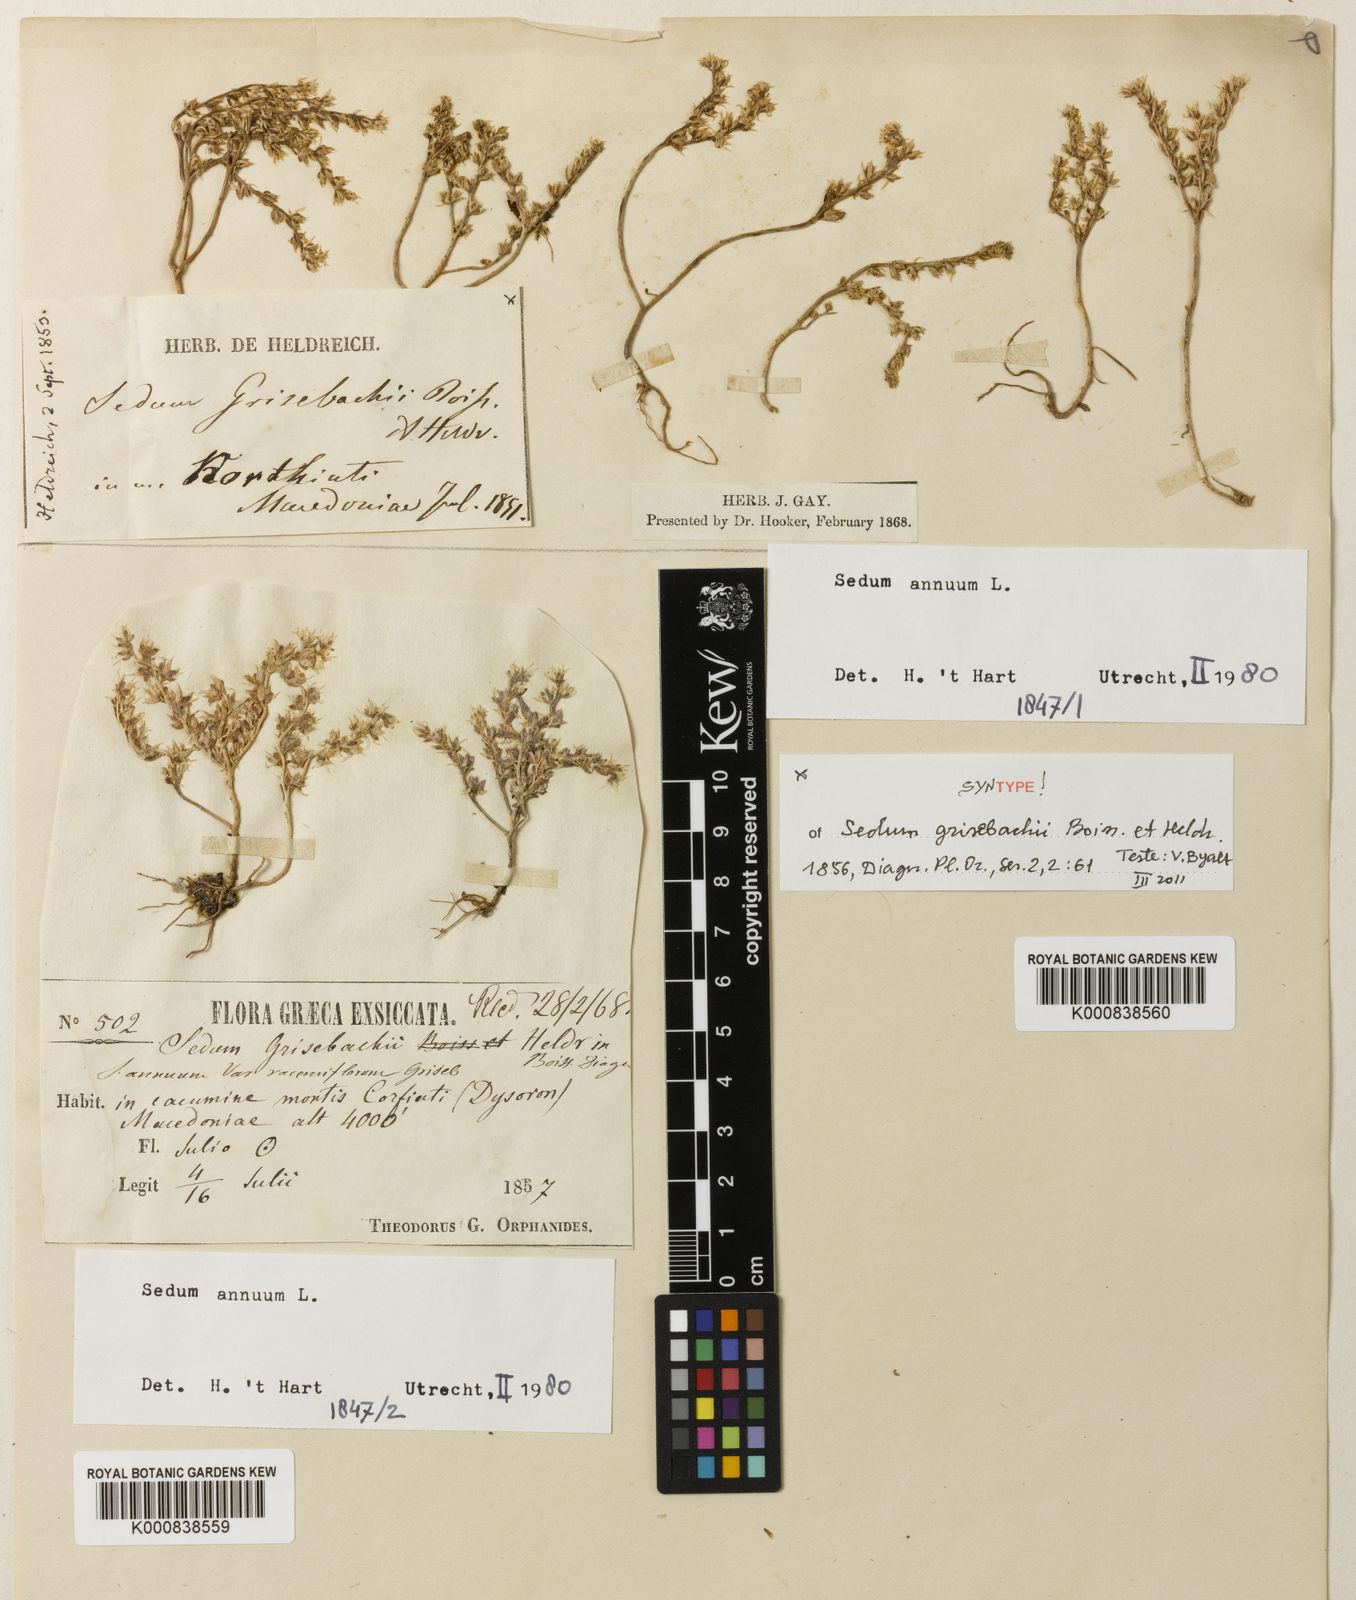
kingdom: Plantae
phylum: Tracheophyta
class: Magnoliopsida
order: Saxifragales
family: Crassulaceae
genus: Sedum
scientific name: Sedum annuum
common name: Annual stonecrop
